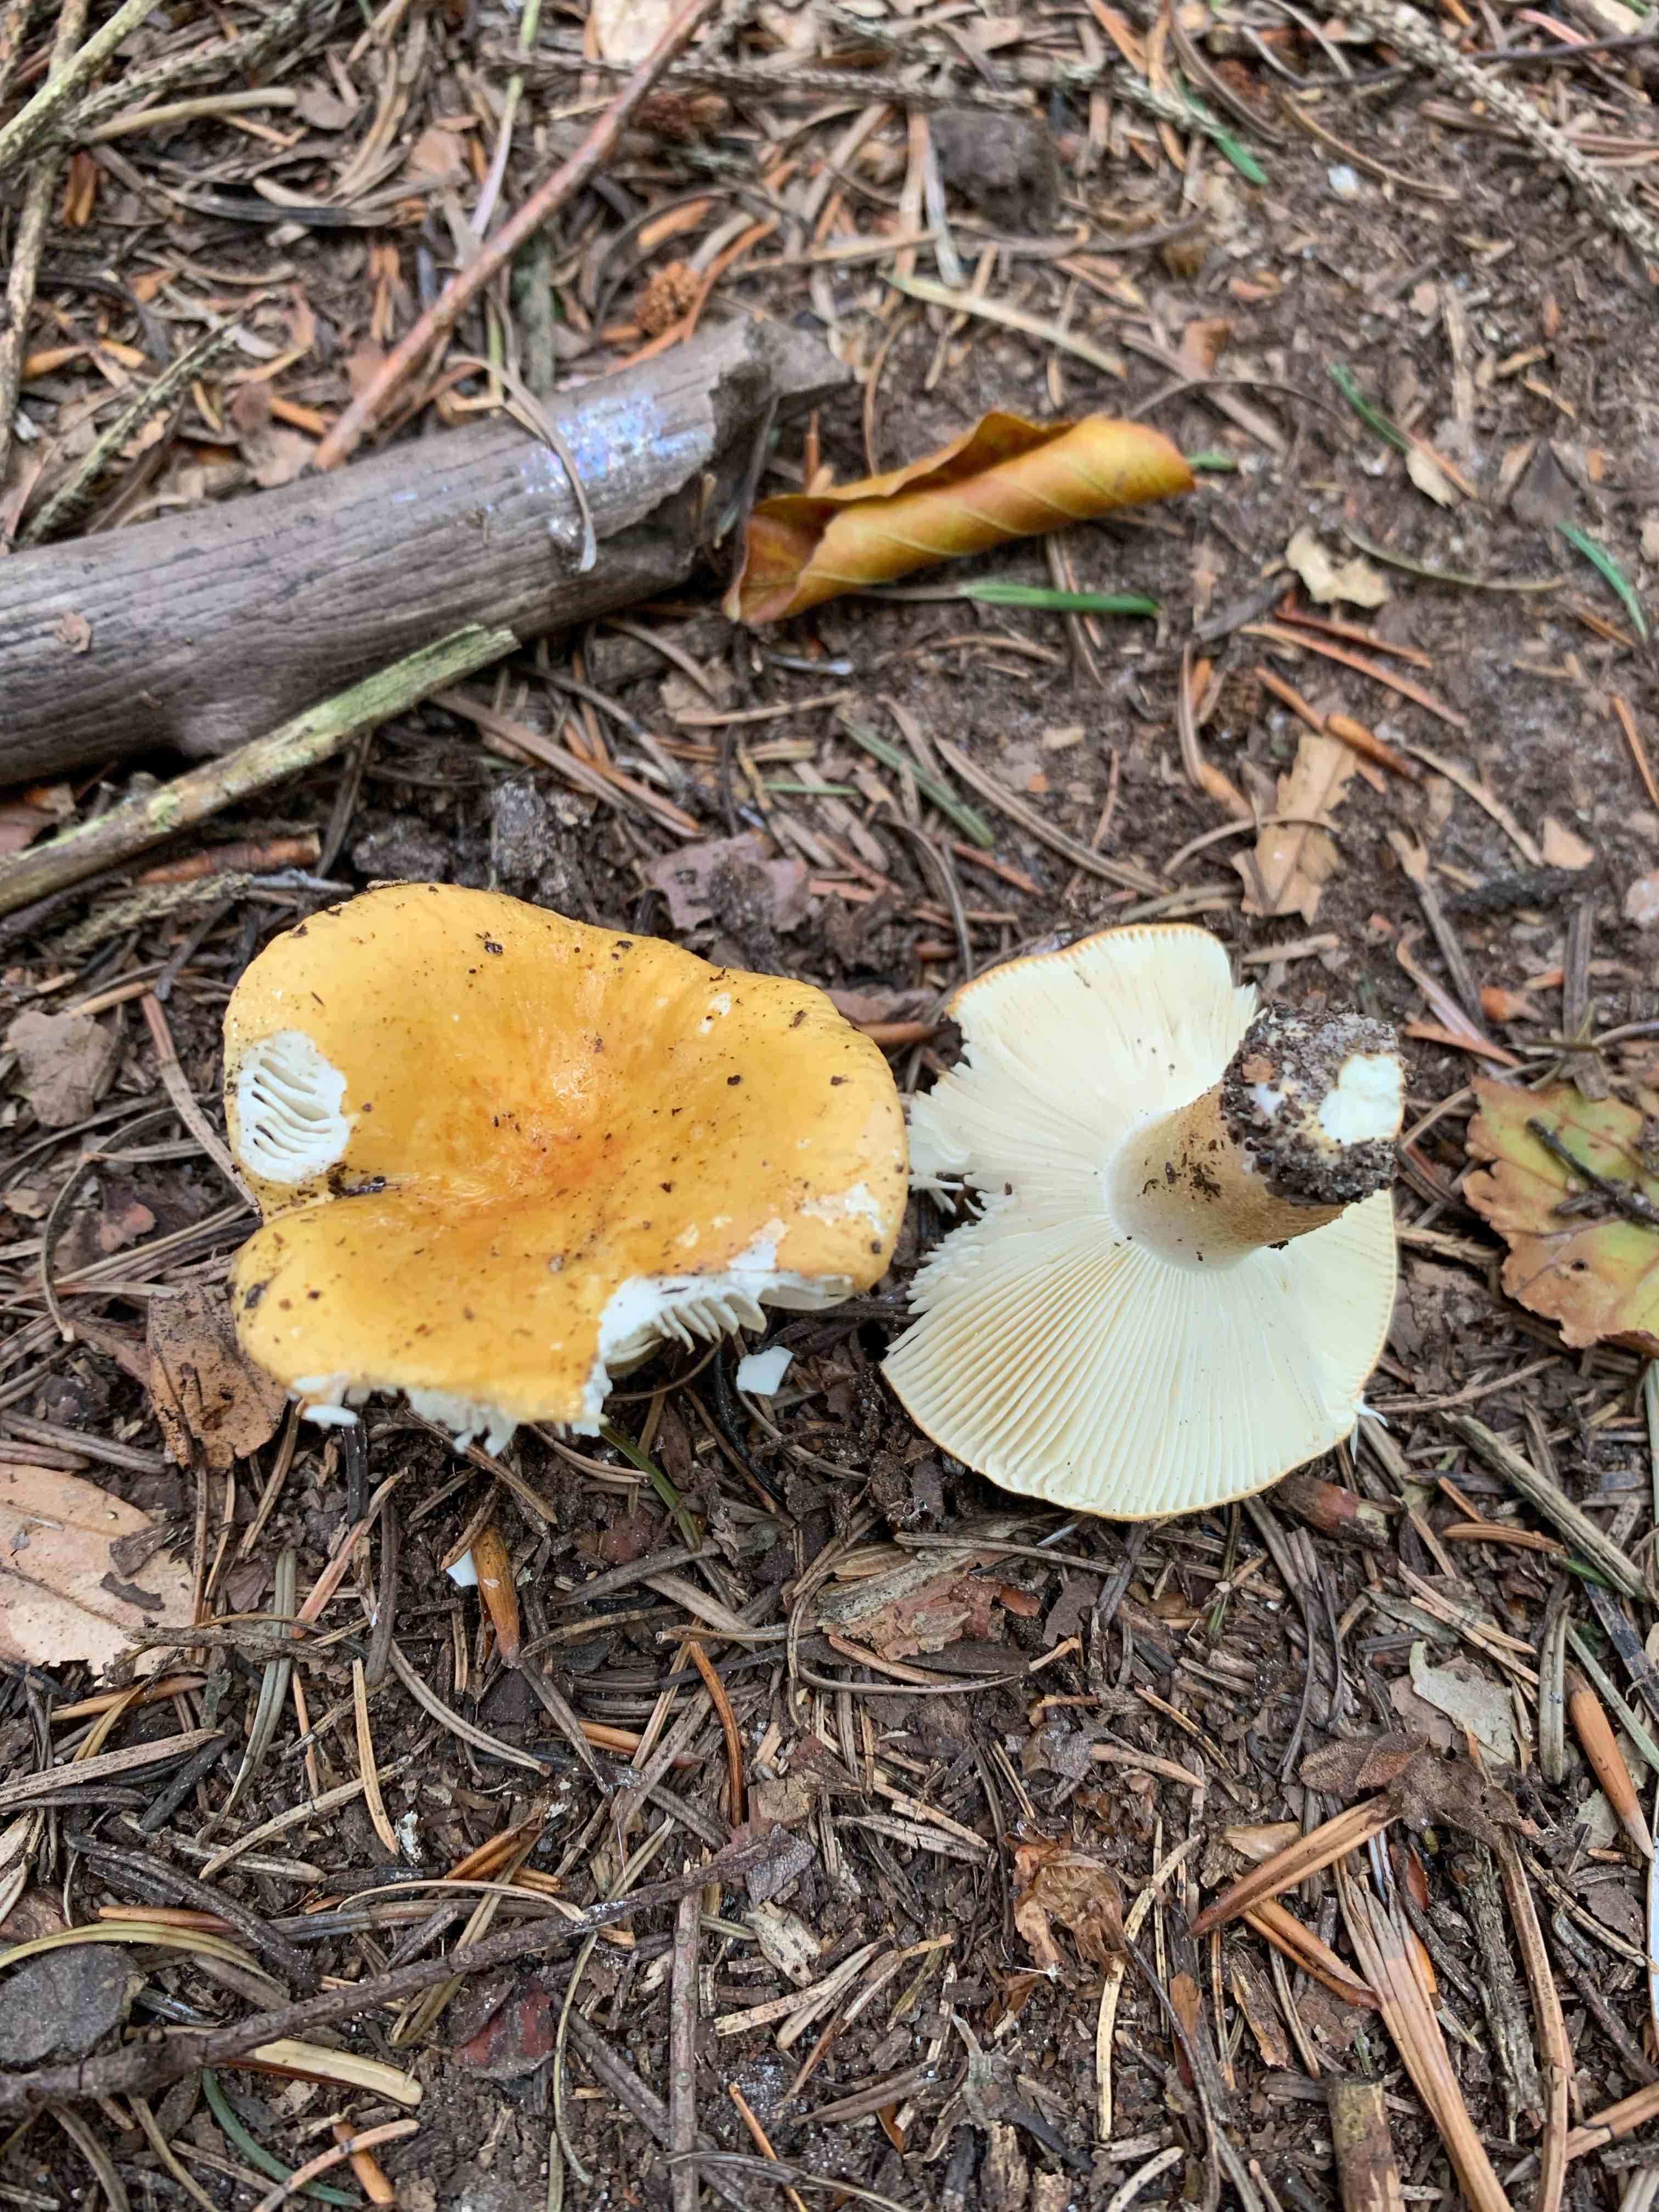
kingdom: Fungi
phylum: Basidiomycota
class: Agaricomycetes
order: Russulales
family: Russulaceae
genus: Russula
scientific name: Russula ochroleuca
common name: okkergul skørhat
